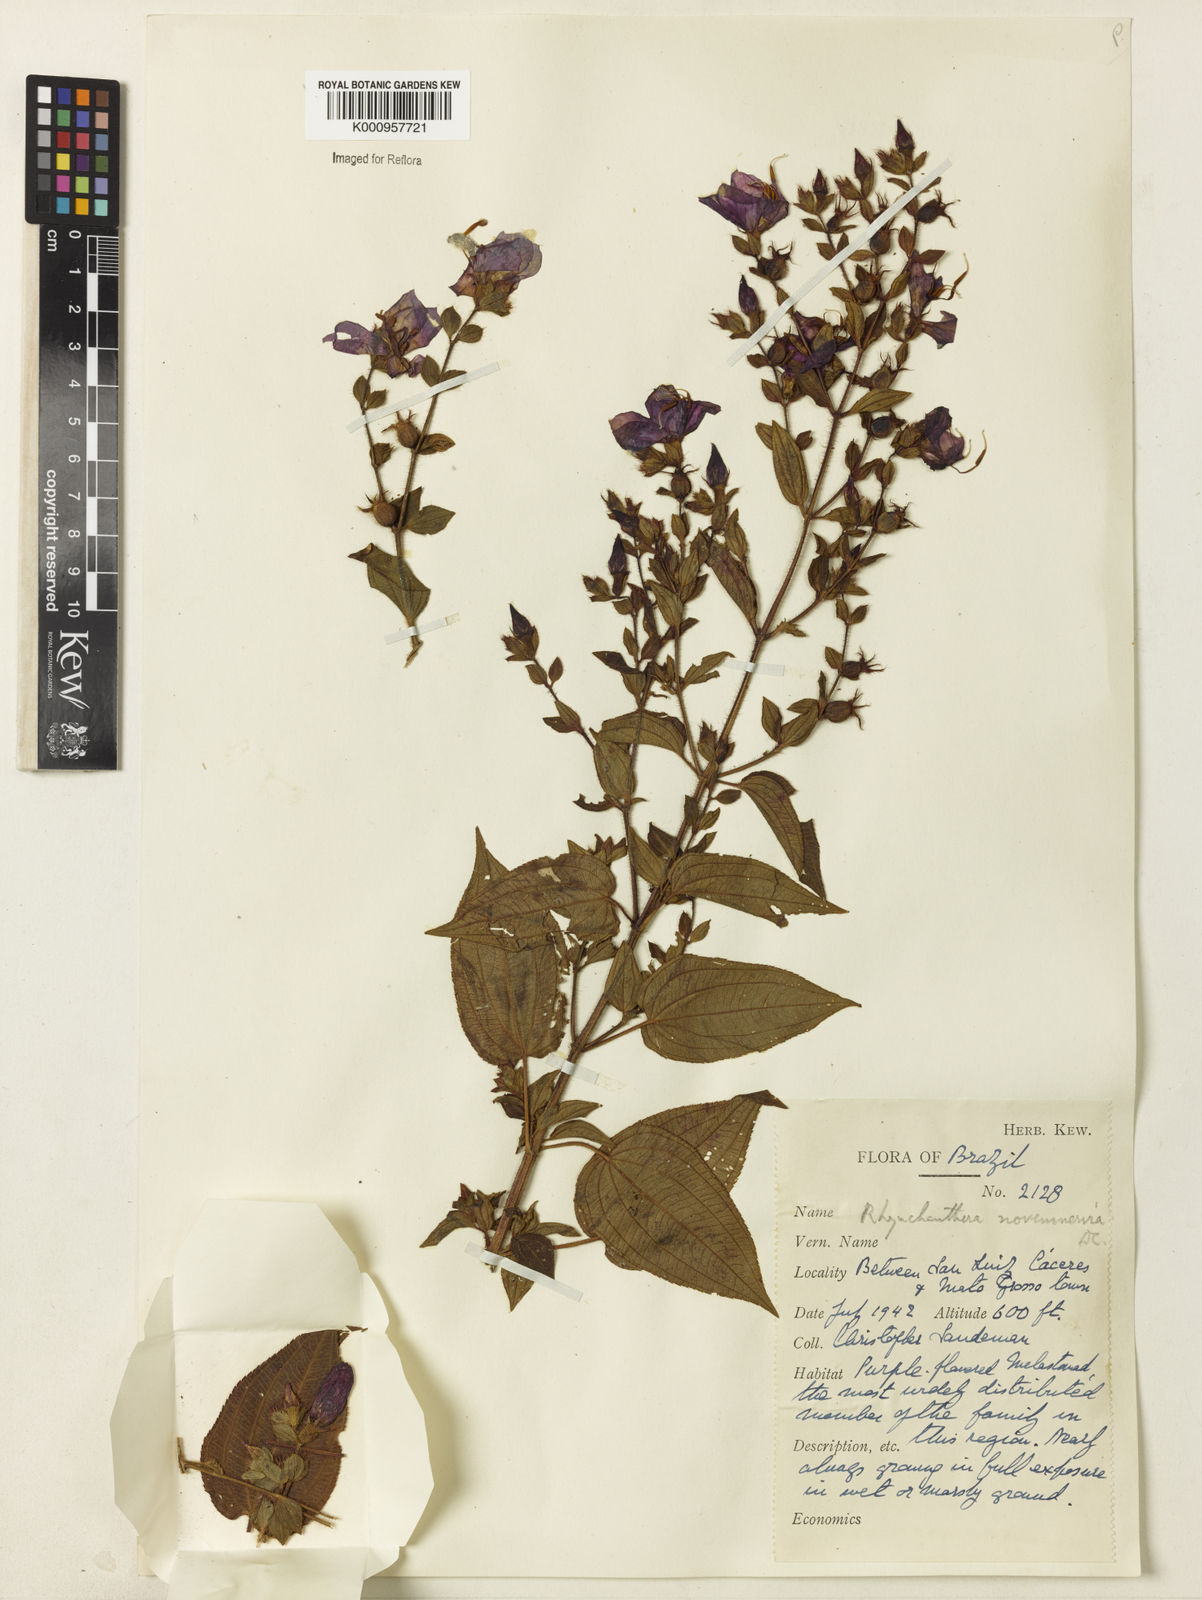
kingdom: Plantae
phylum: Tracheophyta
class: Magnoliopsida
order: Myrtales
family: Melastomataceae
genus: Rhynchanthera
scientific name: Rhynchanthera novemnervia
